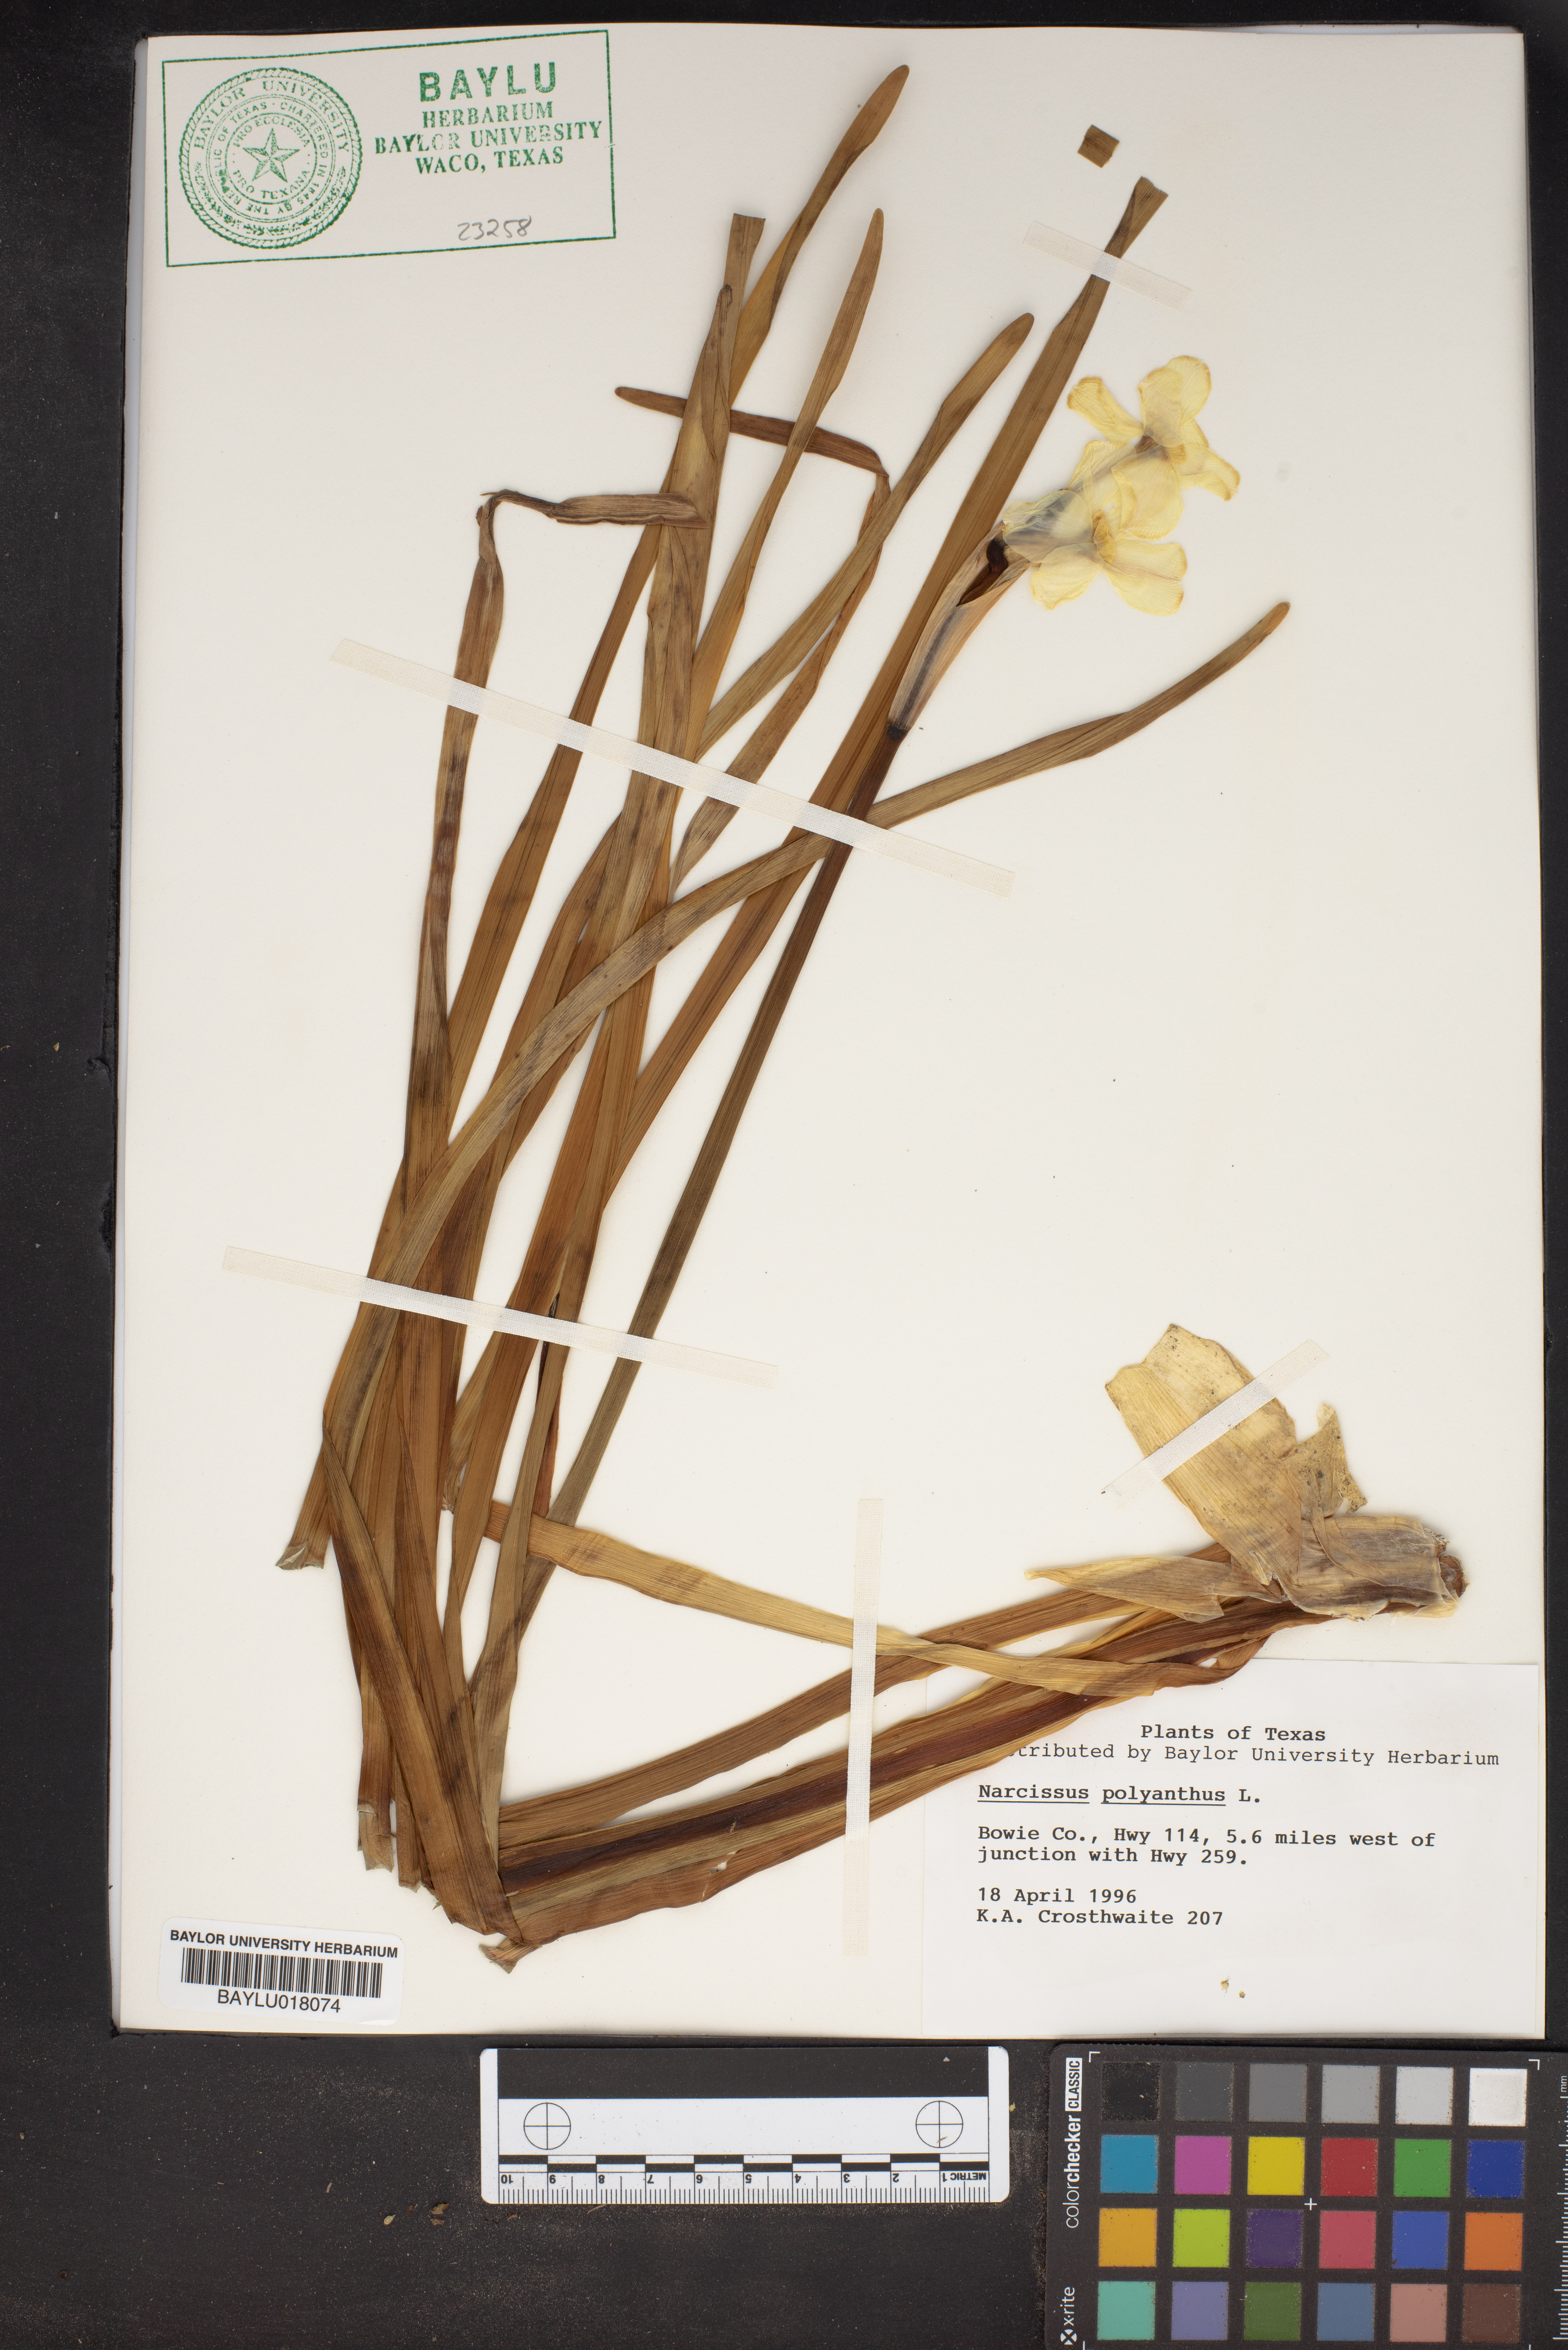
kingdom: Plantae
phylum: Tracheophyta
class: Liliopsida
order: Asparagales
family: Amaryllidaceae
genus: Narcissus
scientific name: Narcissus papyraceus
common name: Paper-white daffodil
